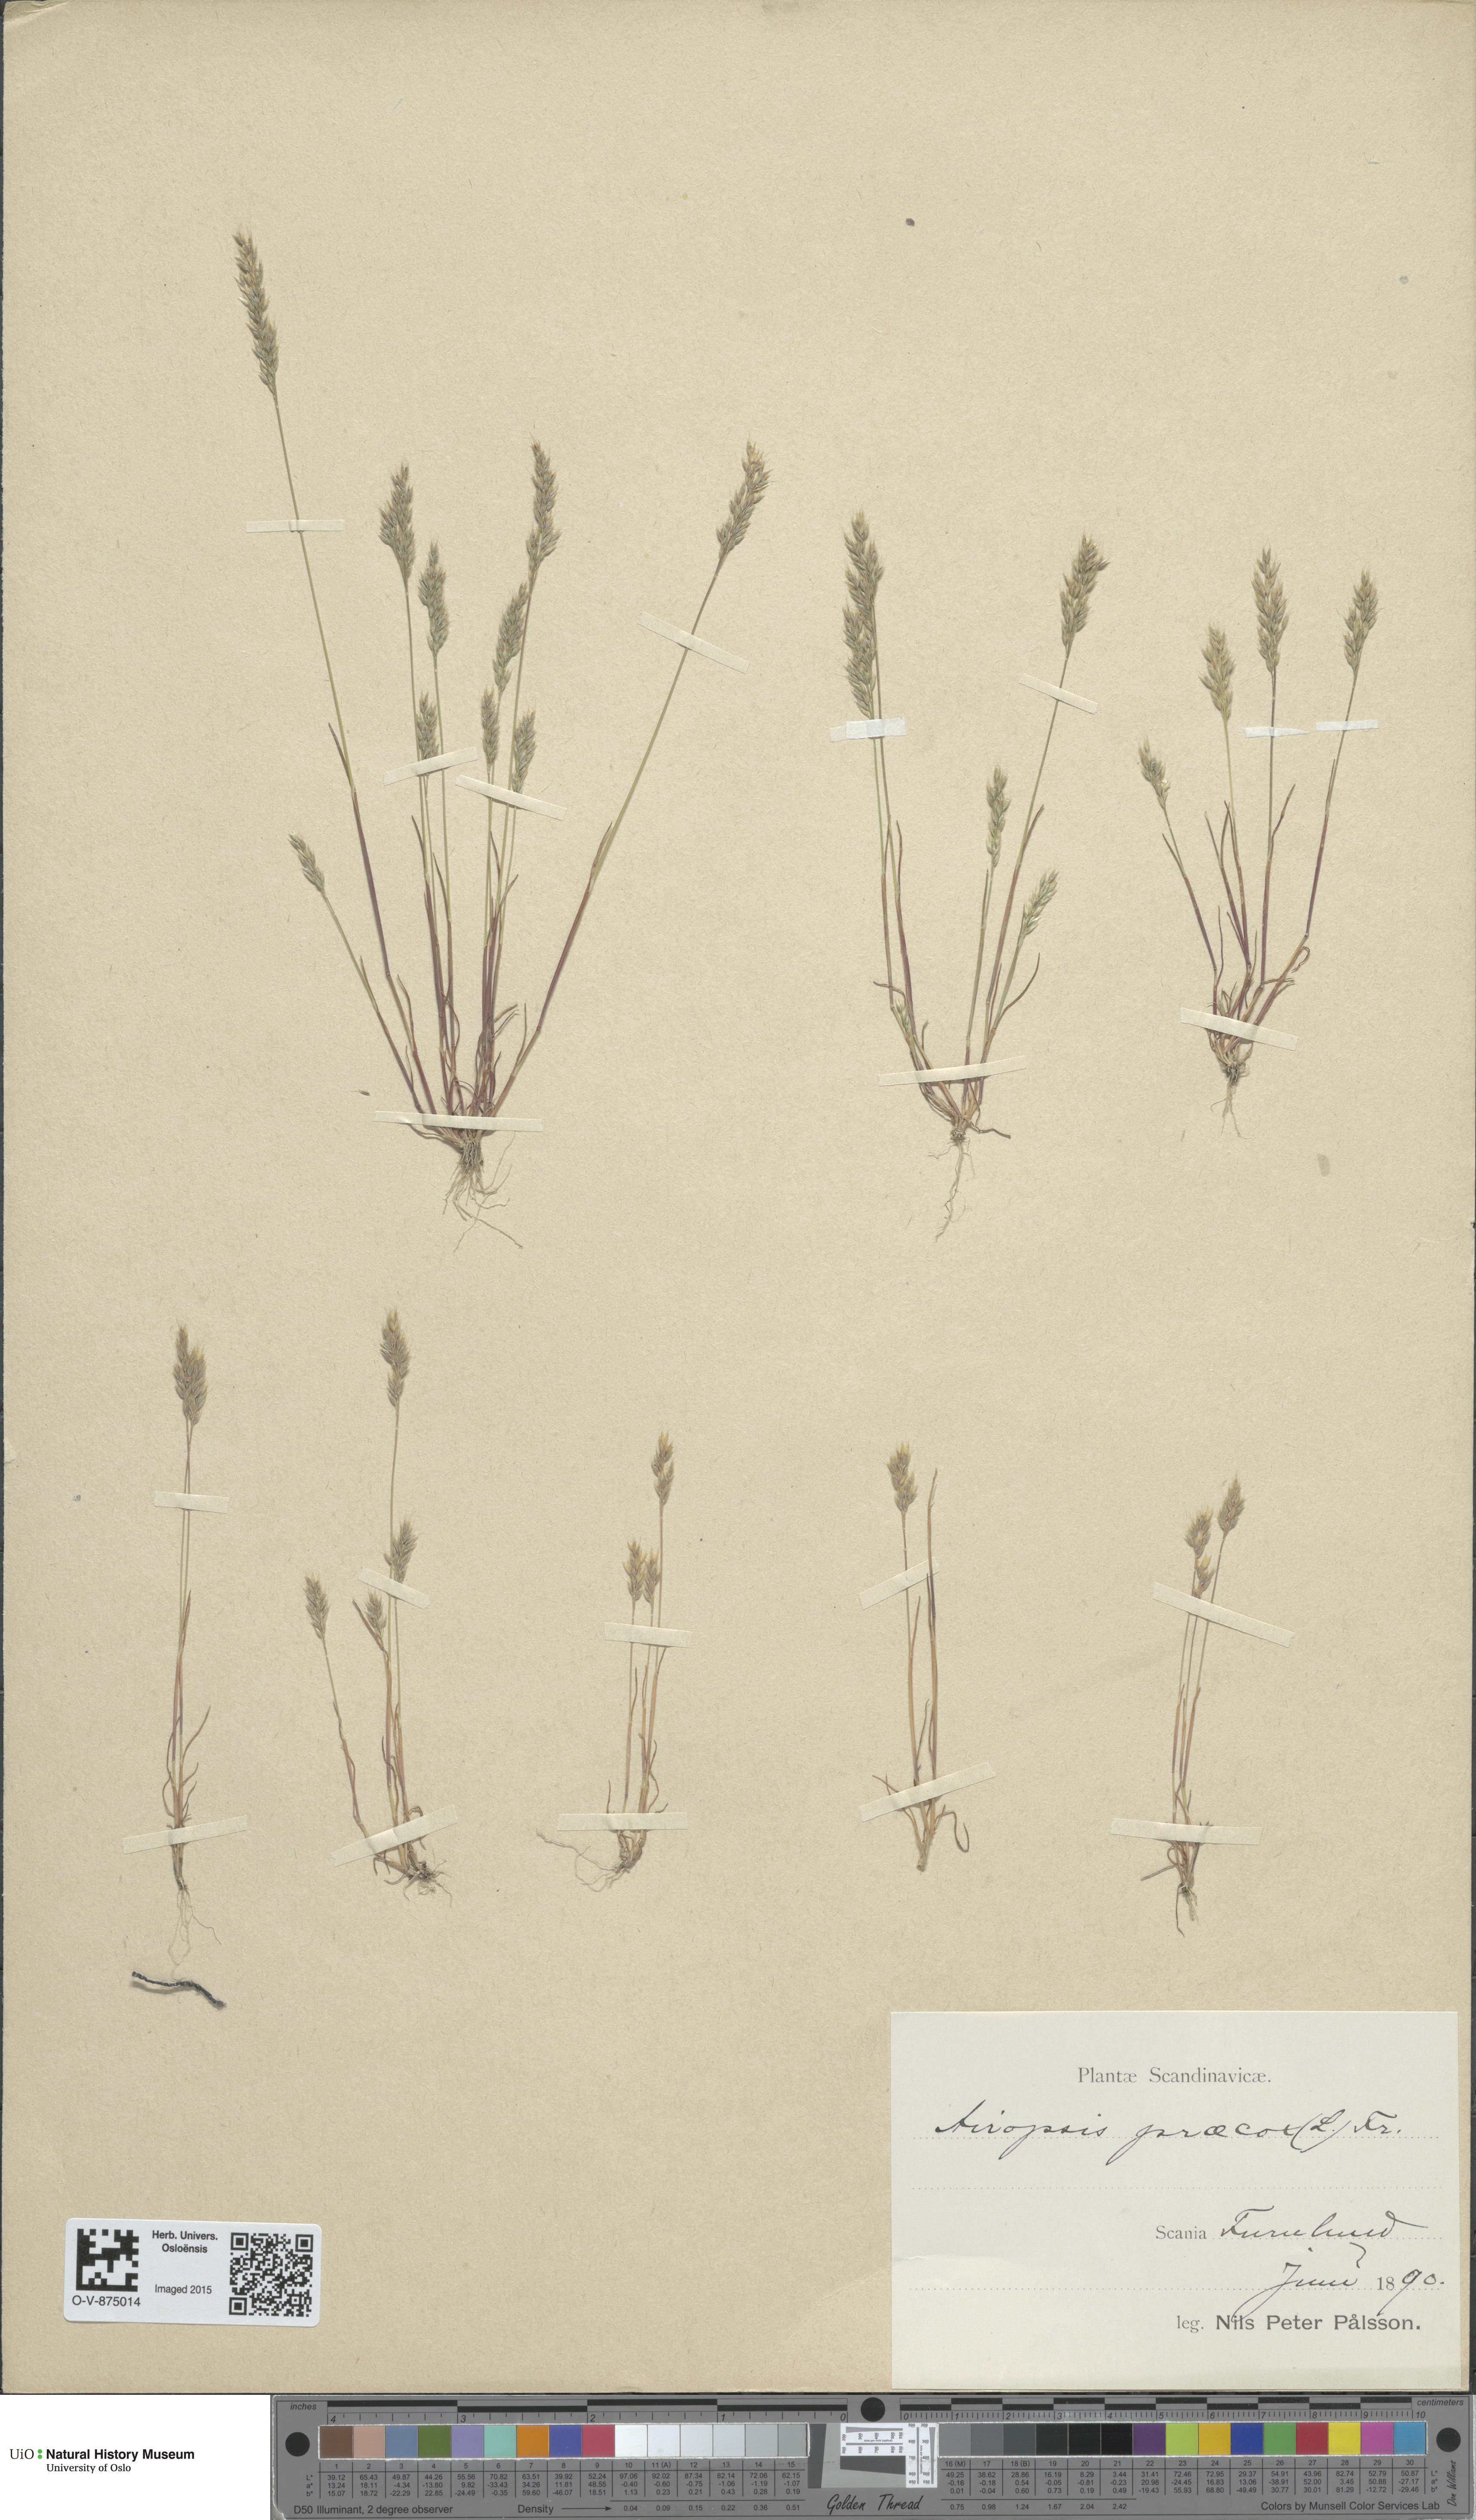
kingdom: Plantae
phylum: Tracheophyta
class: Liliopsida
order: Poales
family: Poaceae
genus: Aira
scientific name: Aira praecox
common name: Early hair-grass
